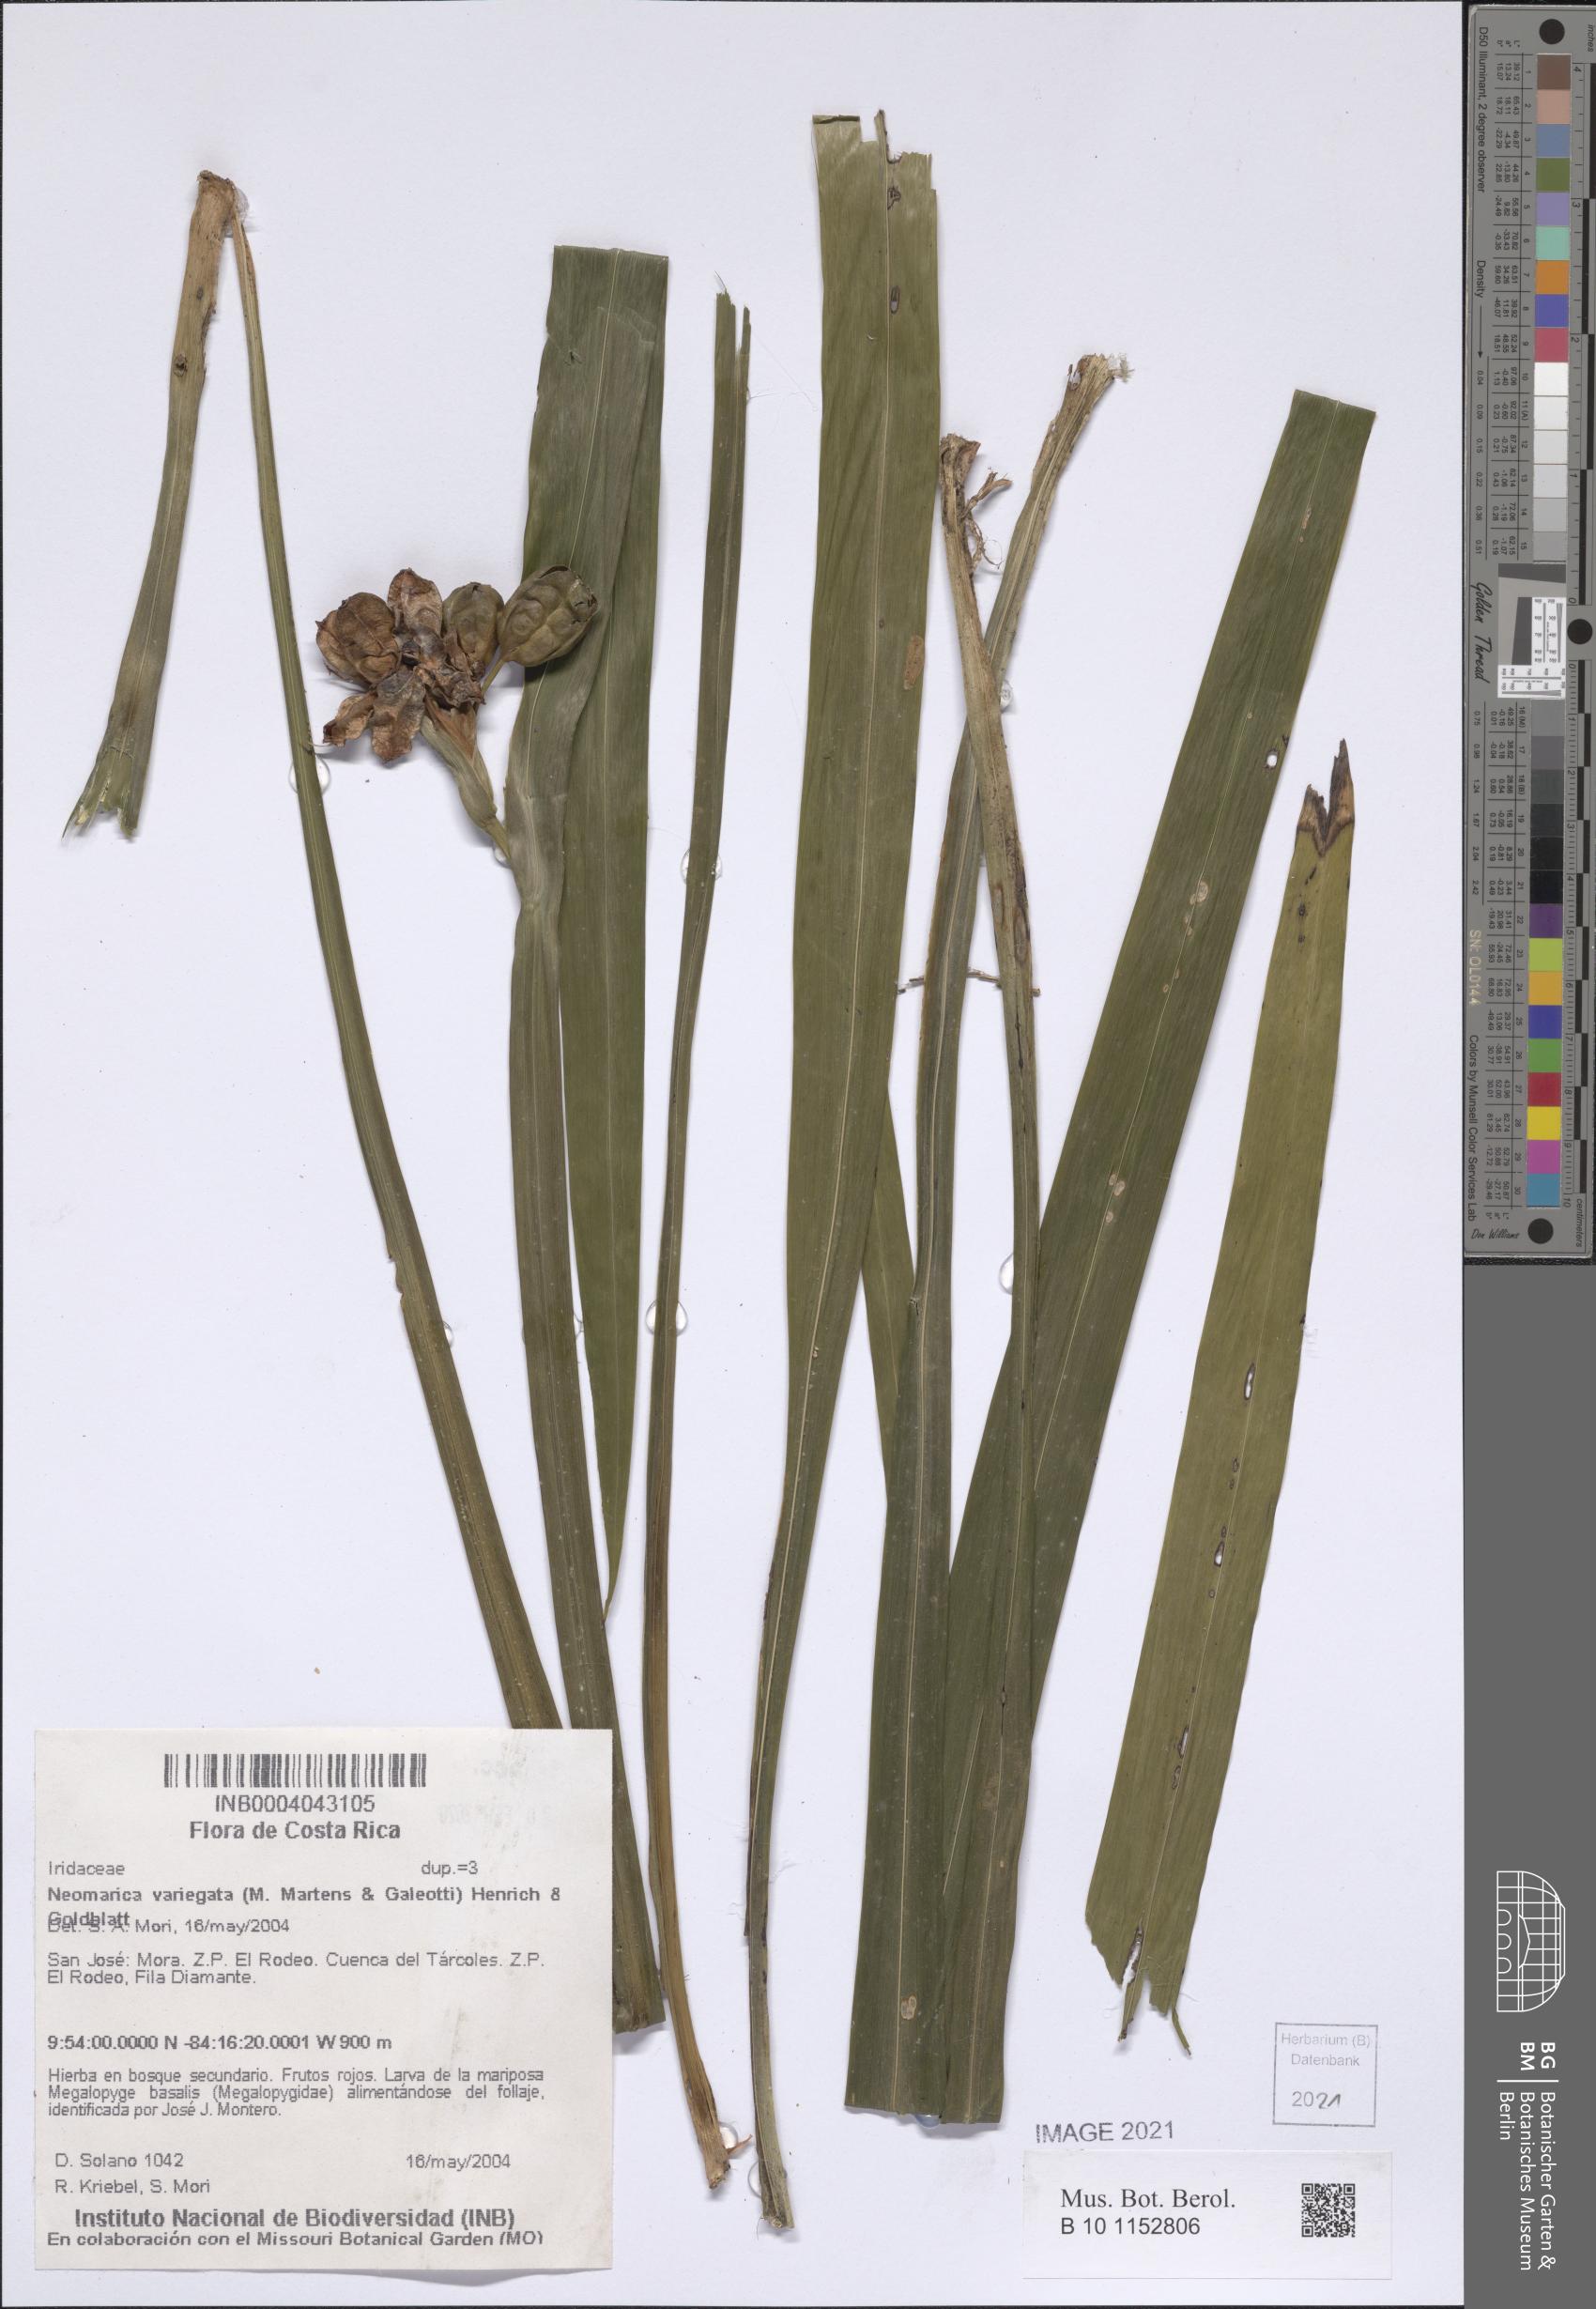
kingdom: Plantae
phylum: Tracheophyta
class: Liliopsida
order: Asparagales
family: Iridaceae
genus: Trimezia
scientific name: Trimezia variegata
